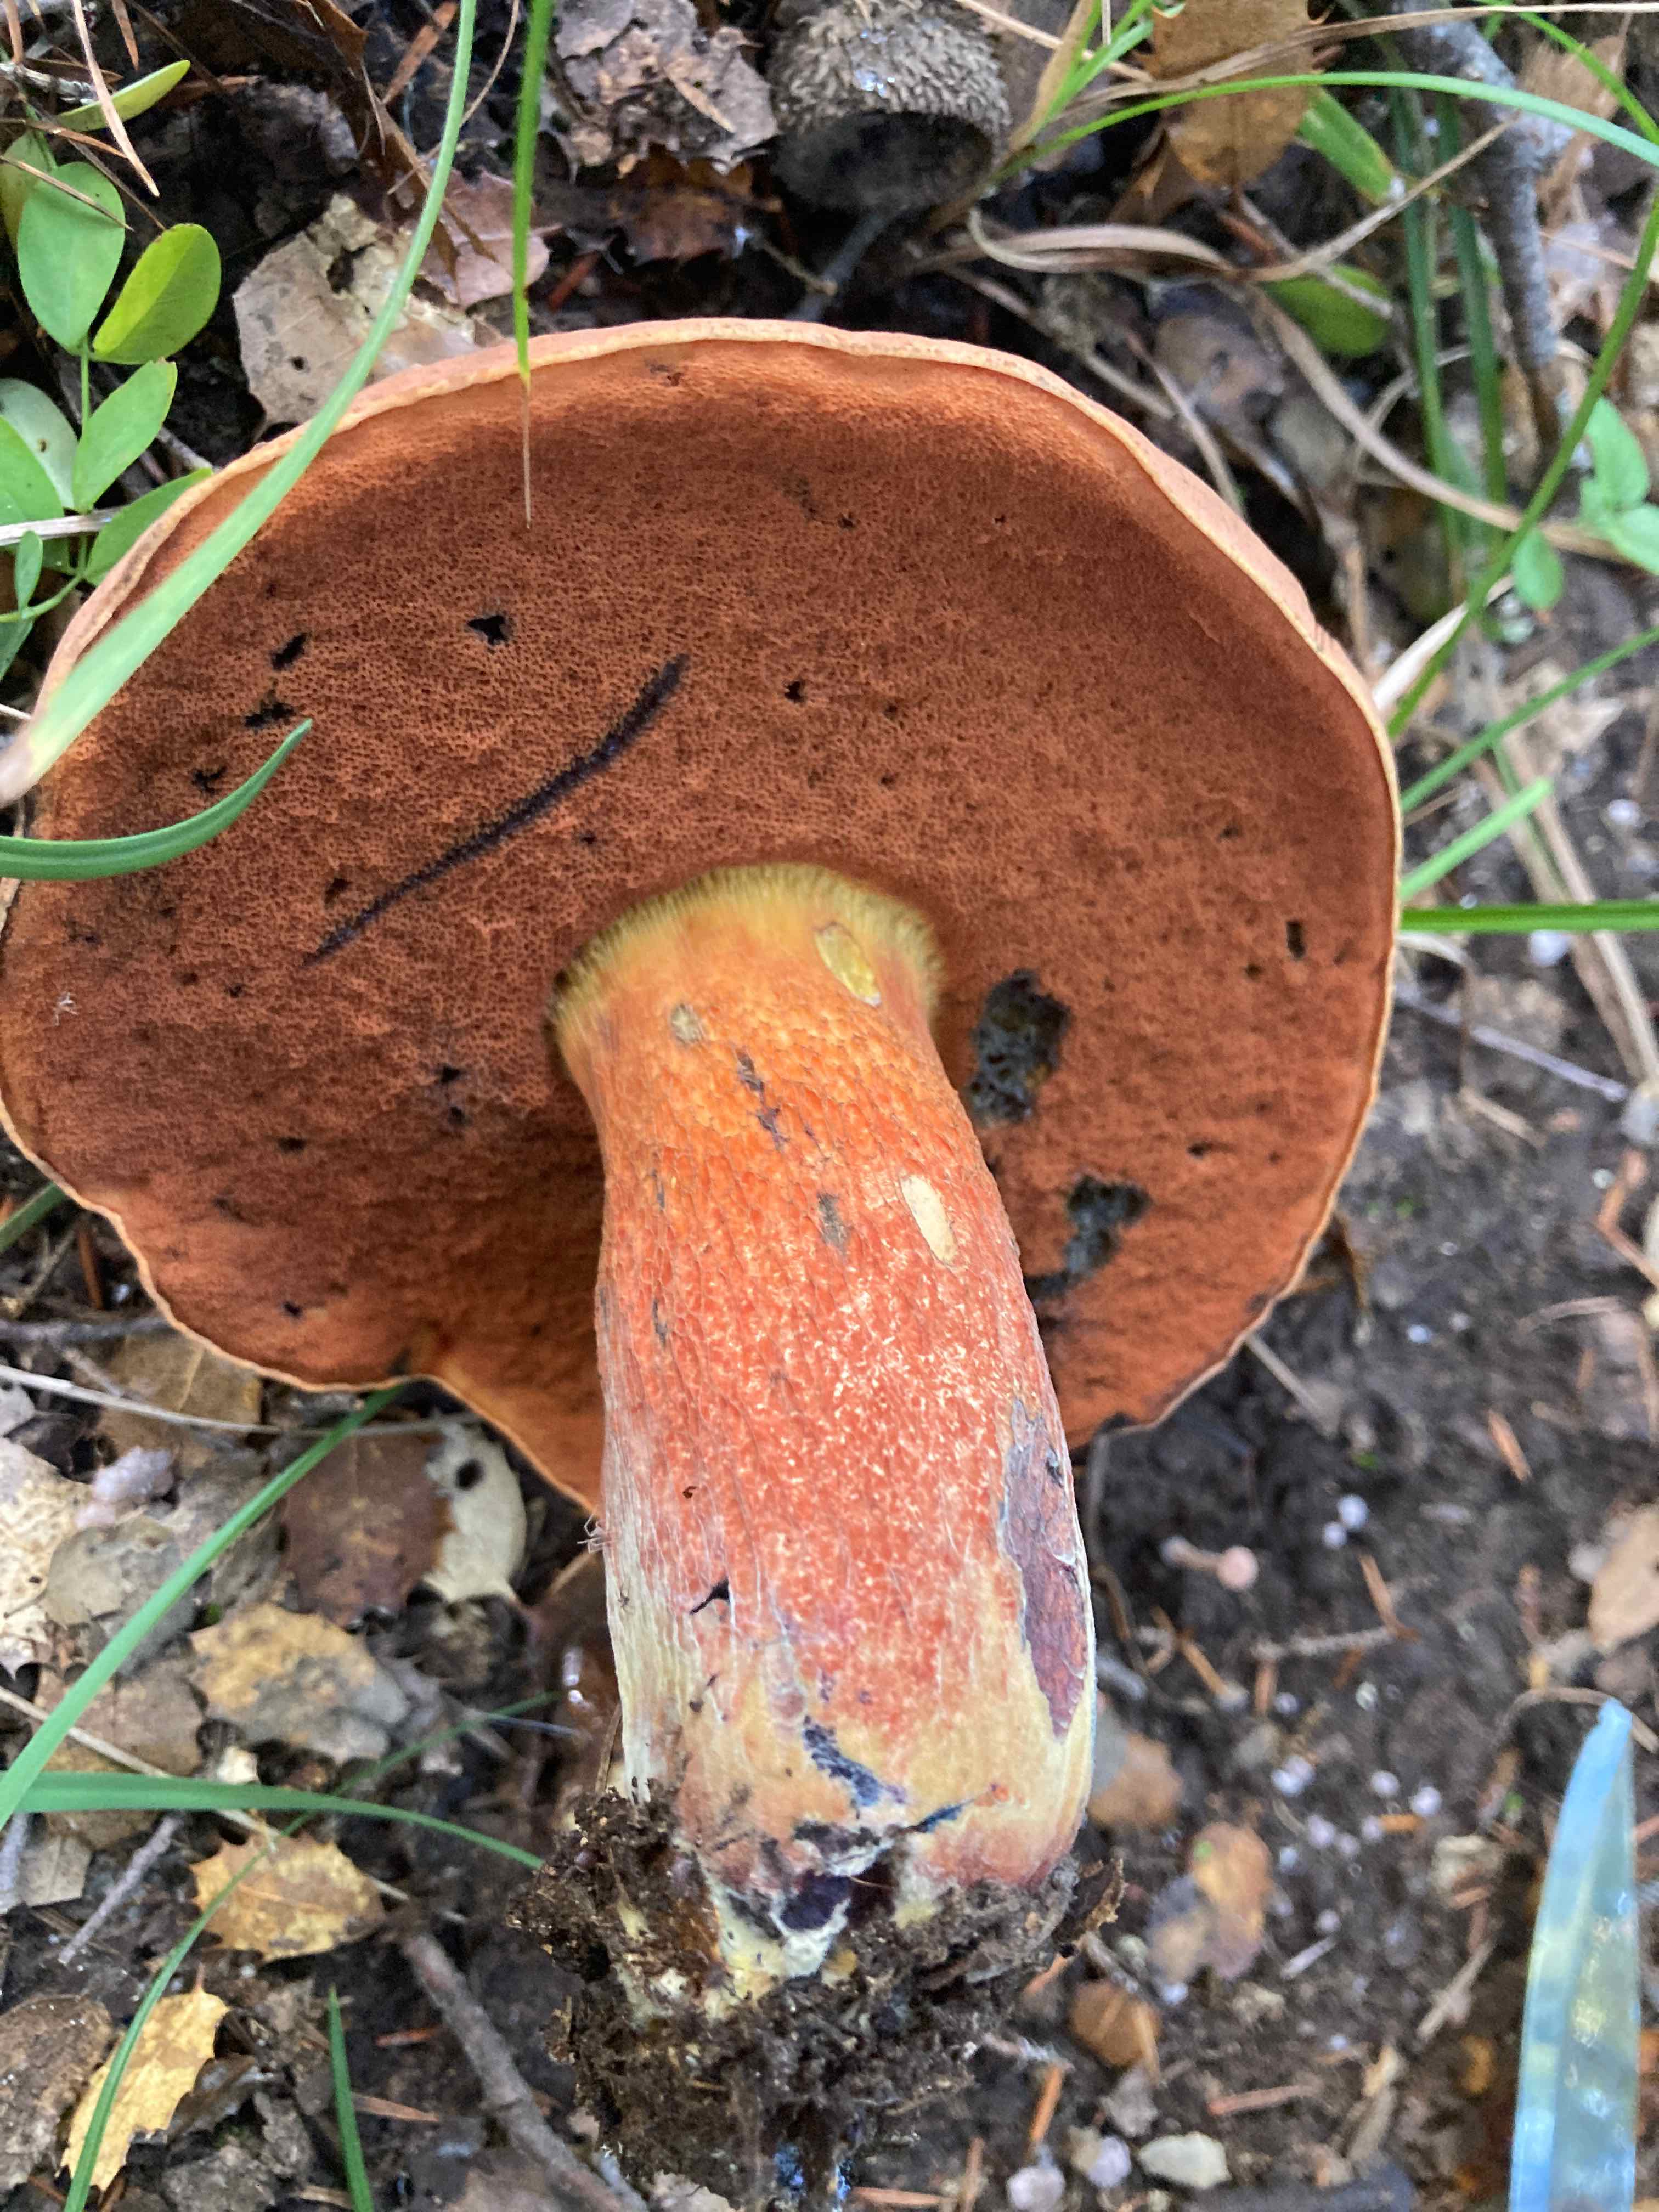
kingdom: Fungi
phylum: Basidiomycota
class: Agaricomycetes
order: Boletales
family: Boletaceae
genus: Suillellus
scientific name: Suillellus luridus
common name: netstokket indigorørhat
